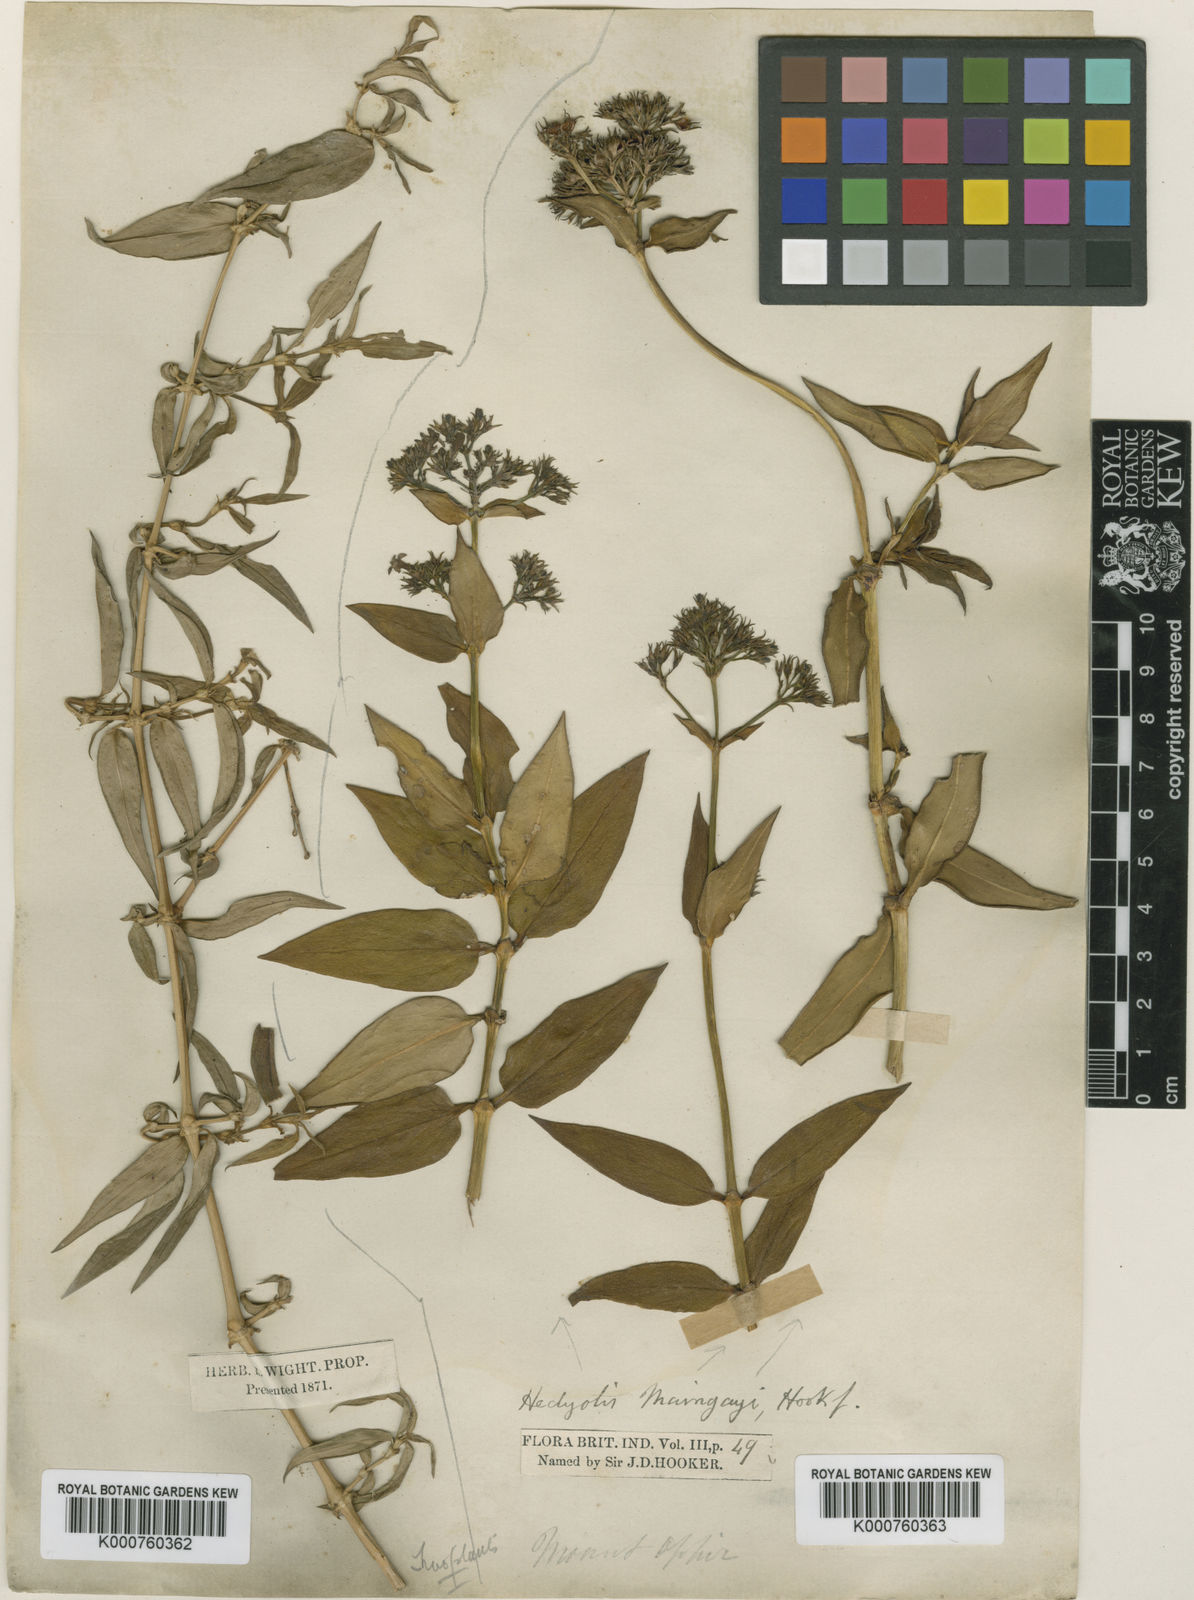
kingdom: Plantae
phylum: Tracheophyta
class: Magnoliopsida
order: Gentianales
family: Rubiaceae
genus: Hedyotis
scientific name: Hedyotis maingayi
